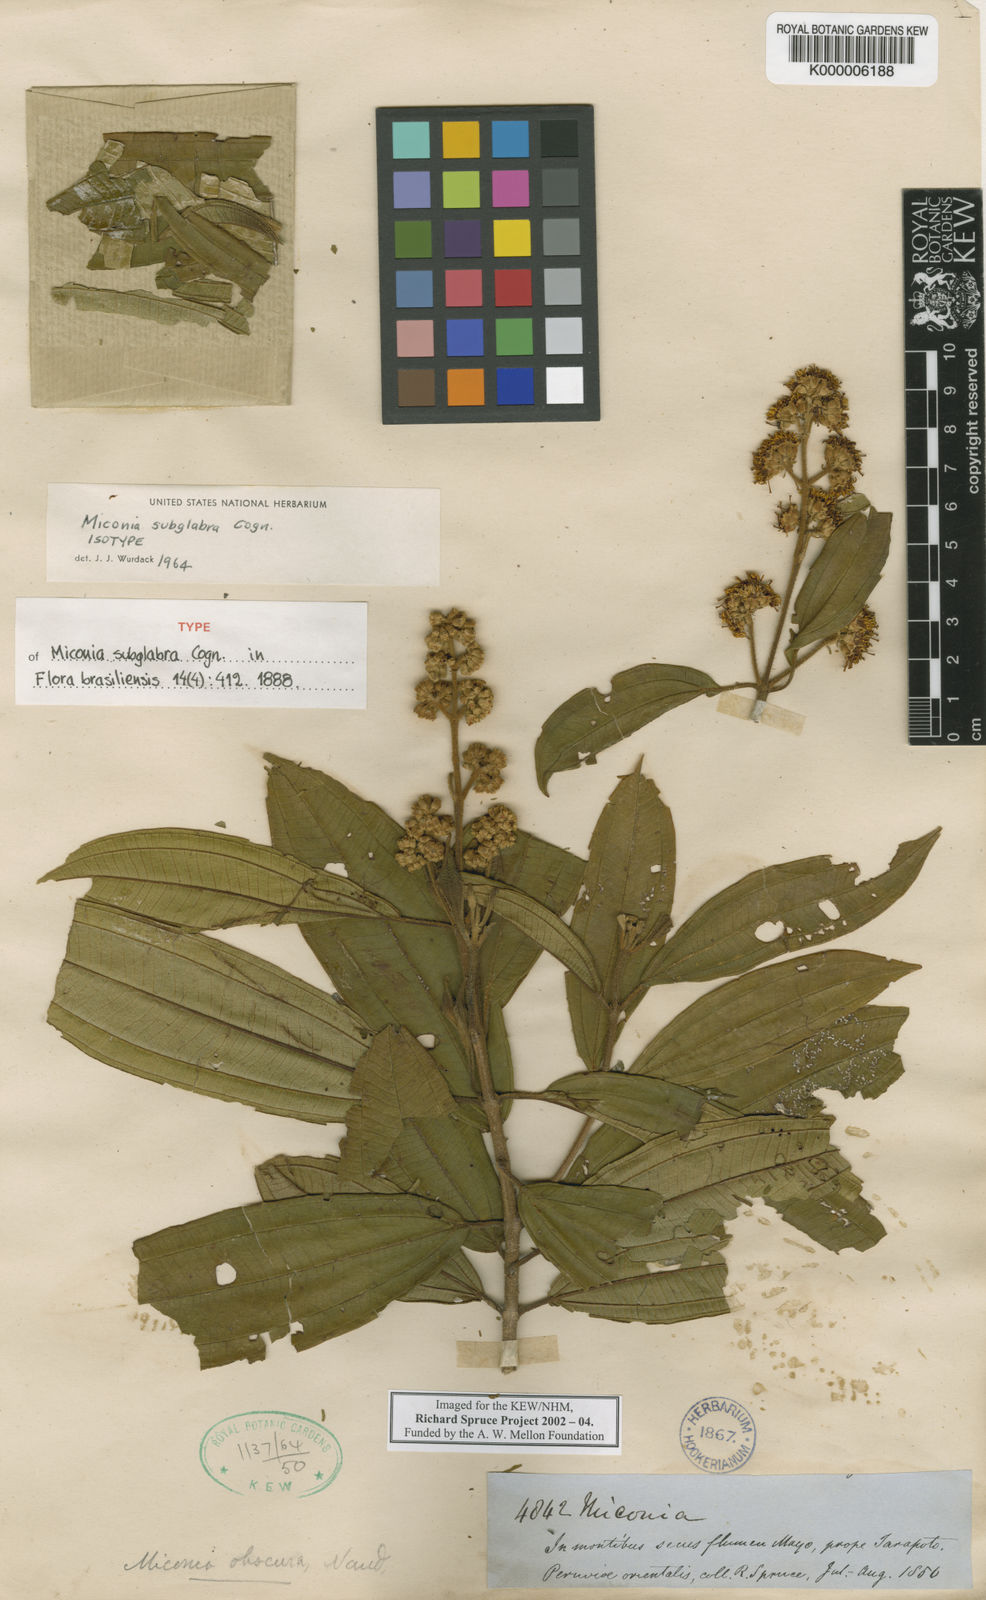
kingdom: Plantae
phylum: Tracheophyta
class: Magnoliopsida
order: Myrtales
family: Melastomataceae
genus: Miconia
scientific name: Miconia subglabra
